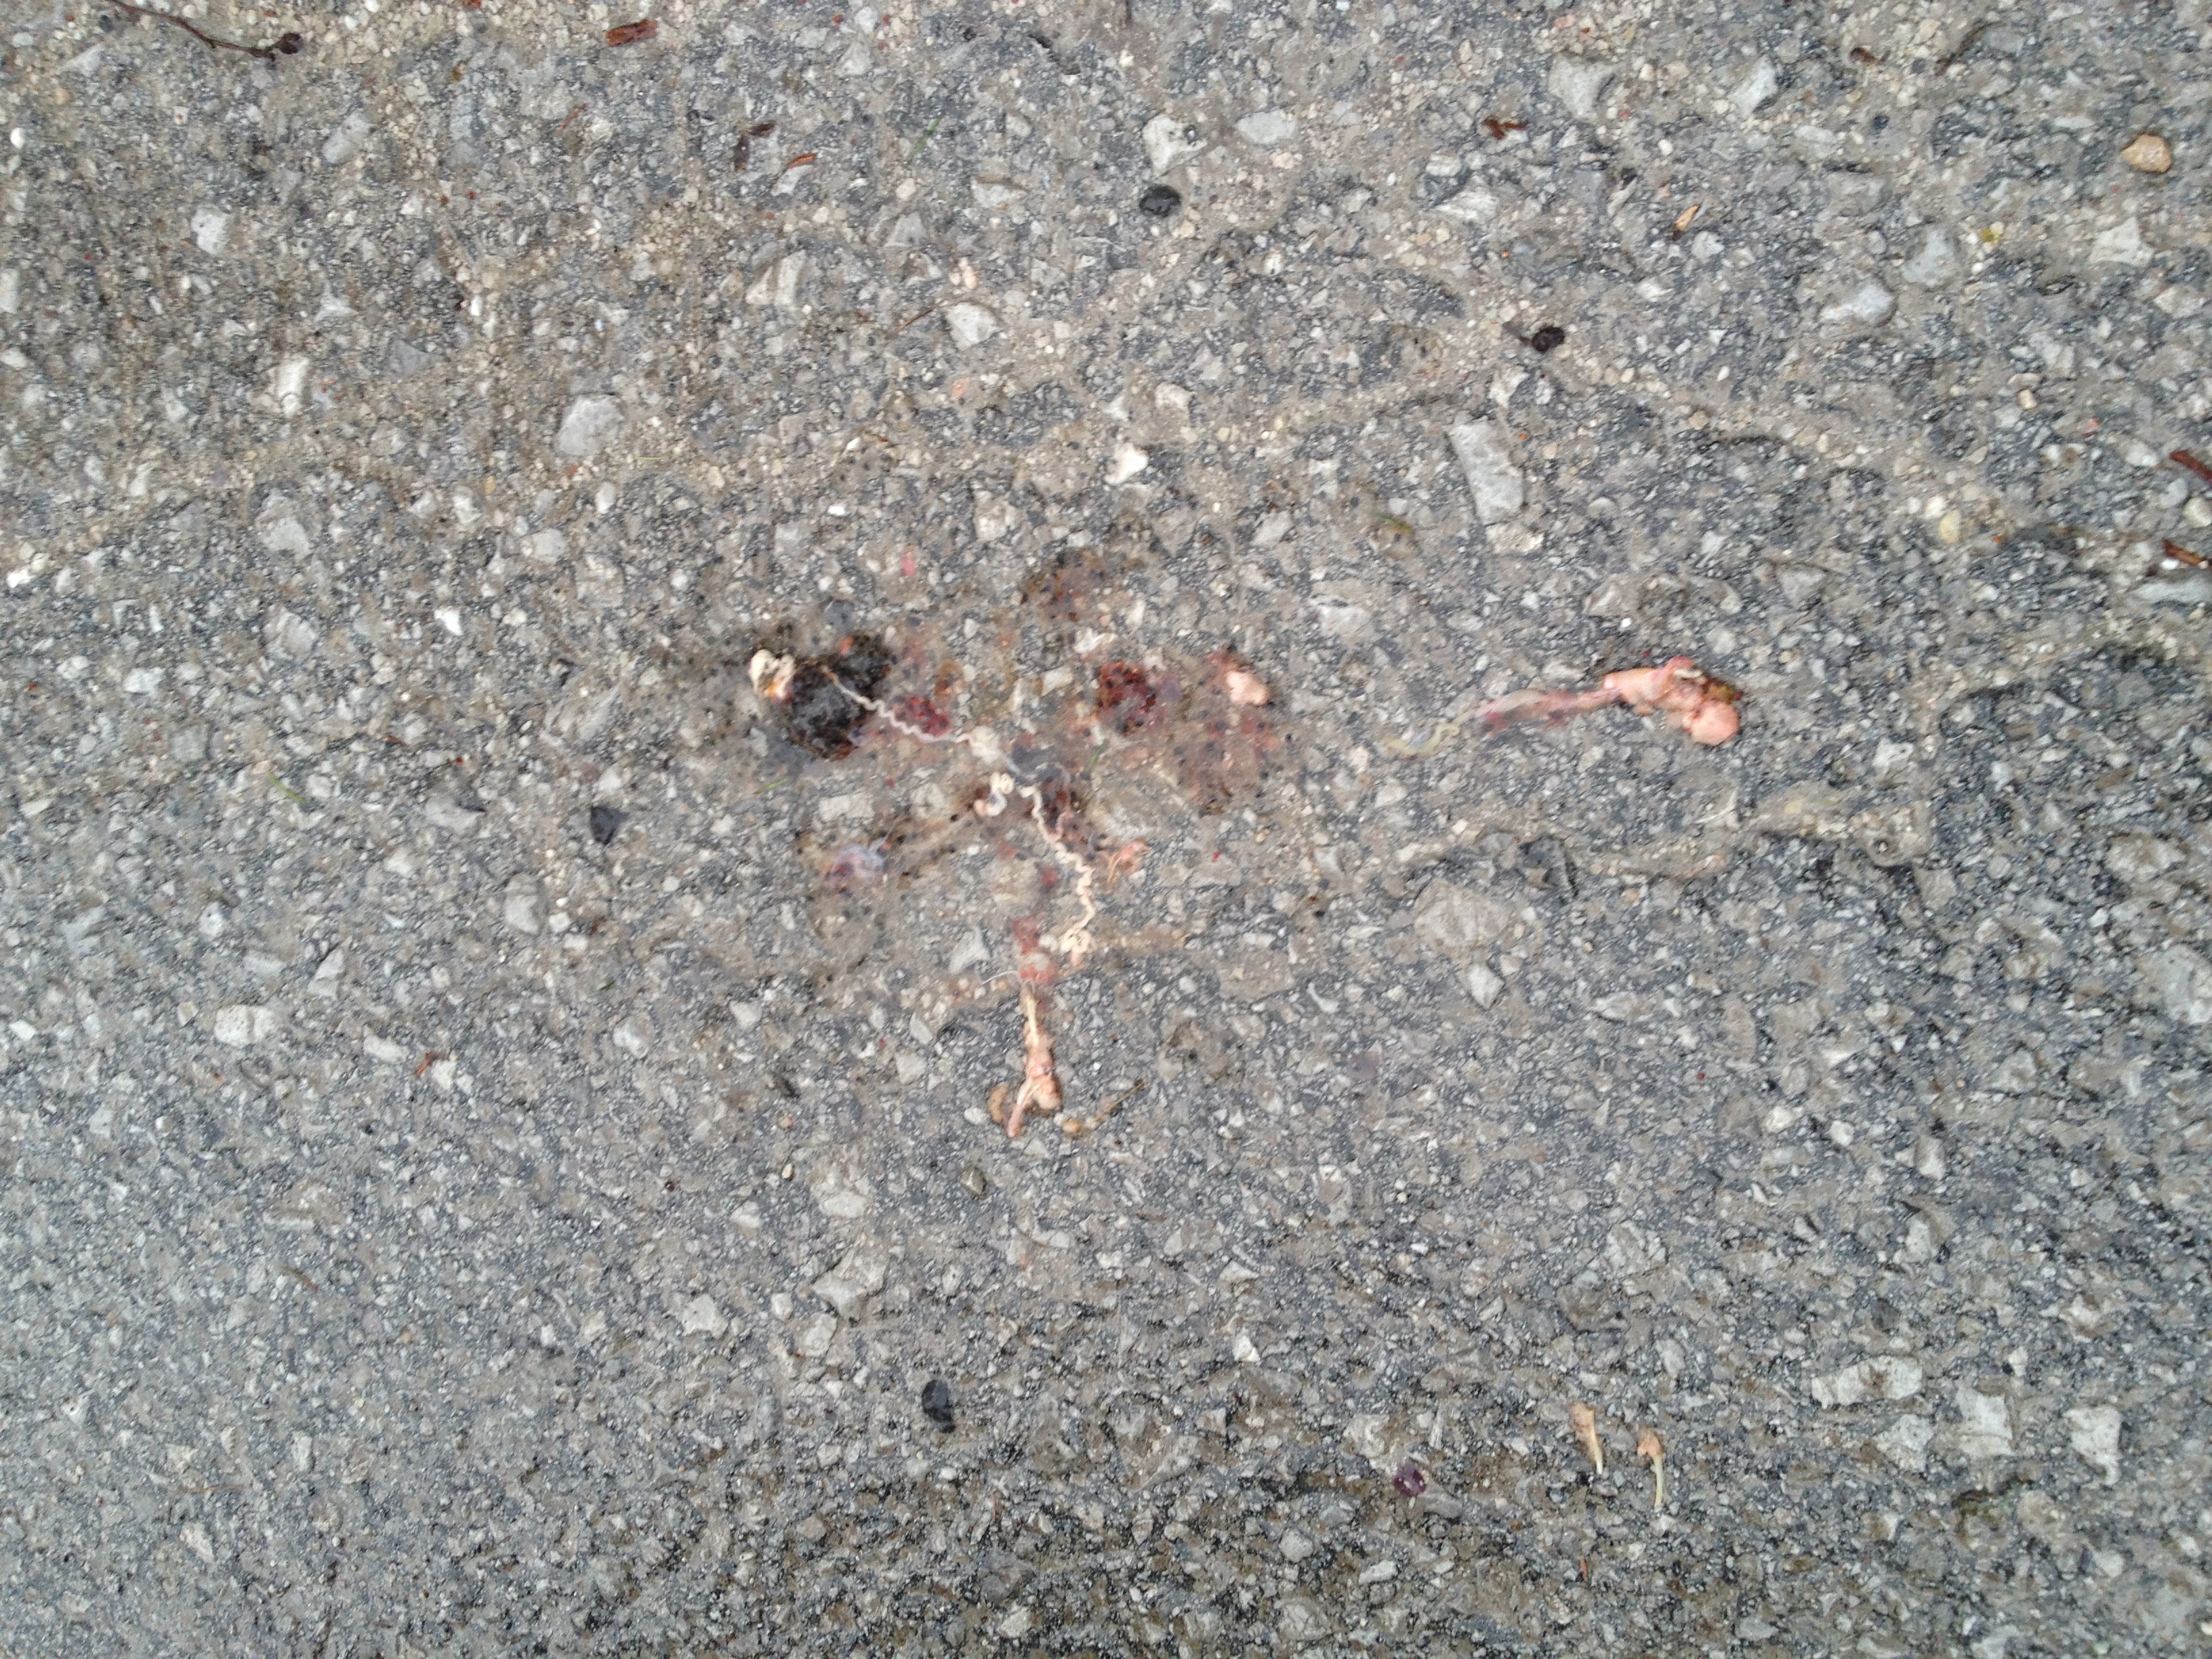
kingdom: Animalia
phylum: Chordata
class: Amphibia
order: Anura
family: Ranidae
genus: Rana
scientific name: Rana temporaria
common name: Common frog
